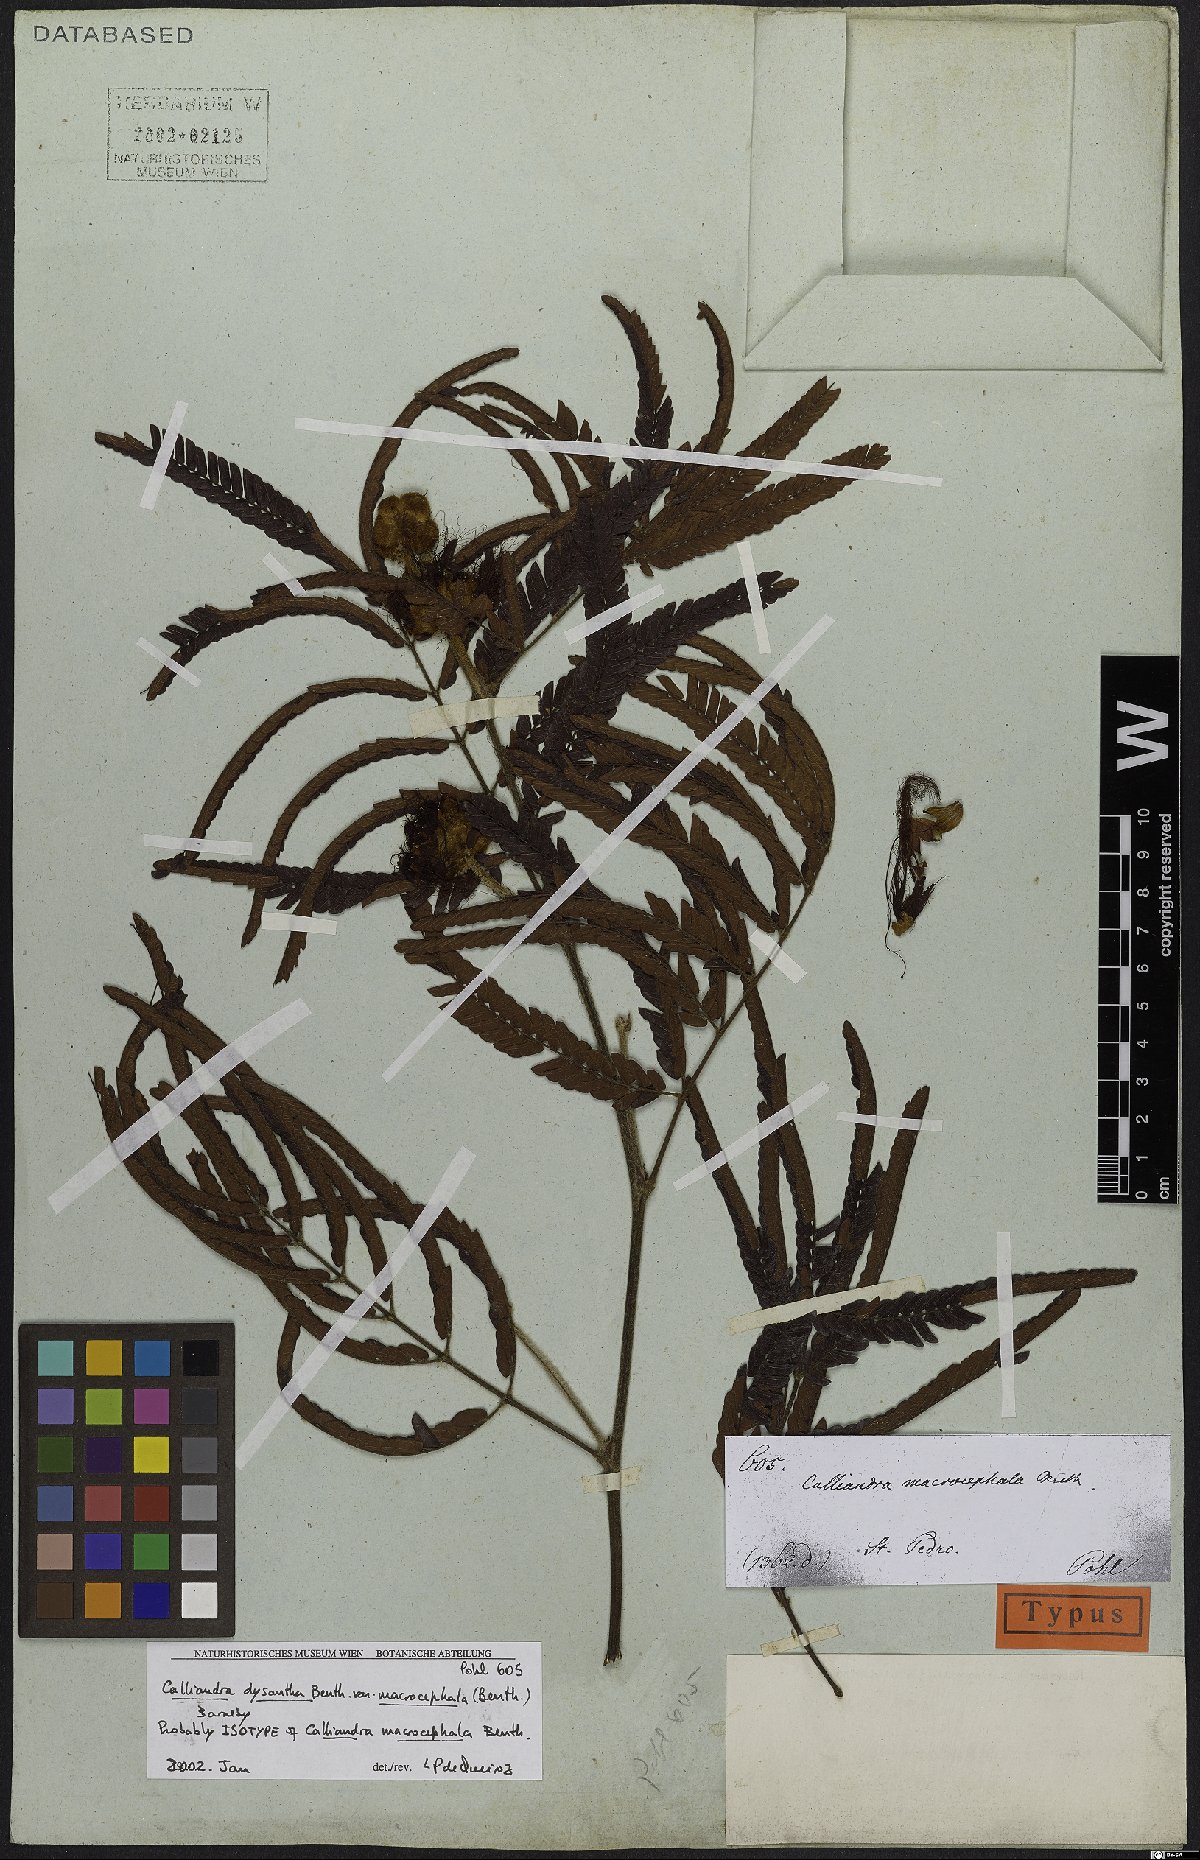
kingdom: Plantae
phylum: Tracheophyta
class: Magnoliopsida
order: Fabales
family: Fabaceae
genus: Calliandra
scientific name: Calliandra dysantha
